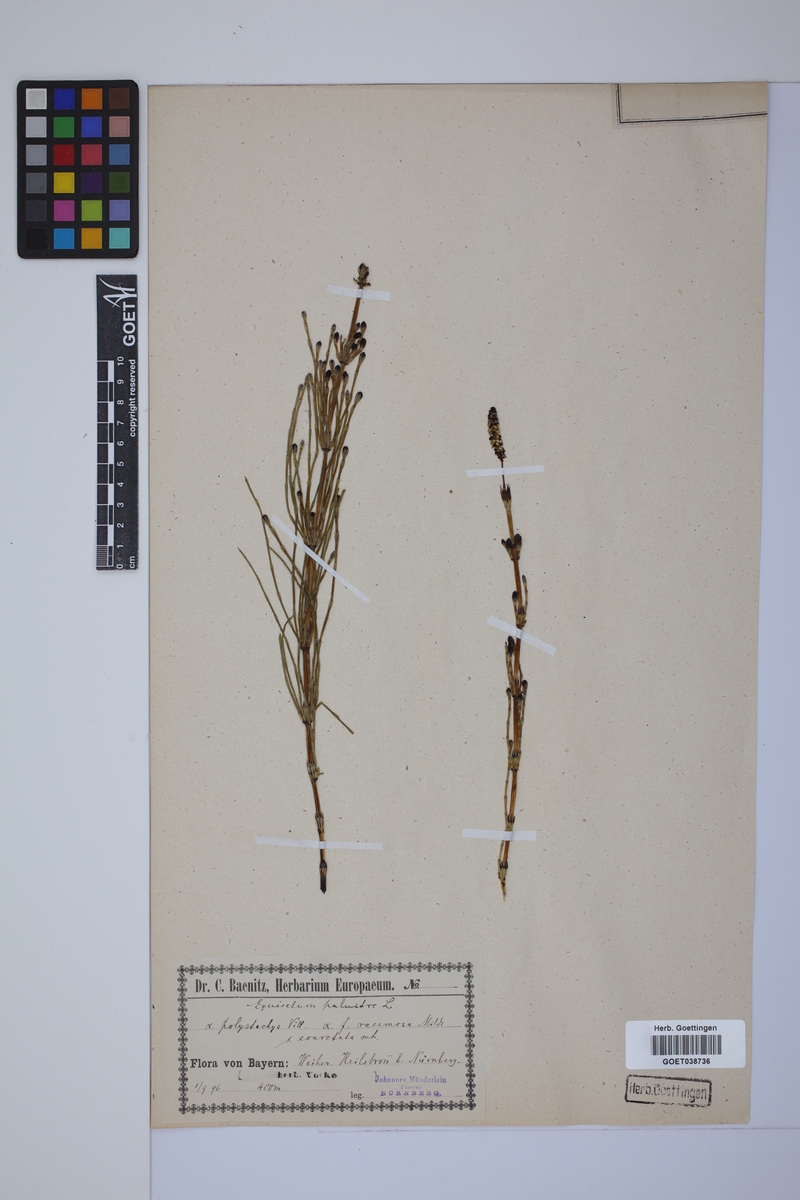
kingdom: Plantae
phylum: Tracheophyta
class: Polypodiopsida
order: Equisetales
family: Equisetaceae
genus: Equisetum
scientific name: Equisetum palustre
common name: Marsh horsetail
